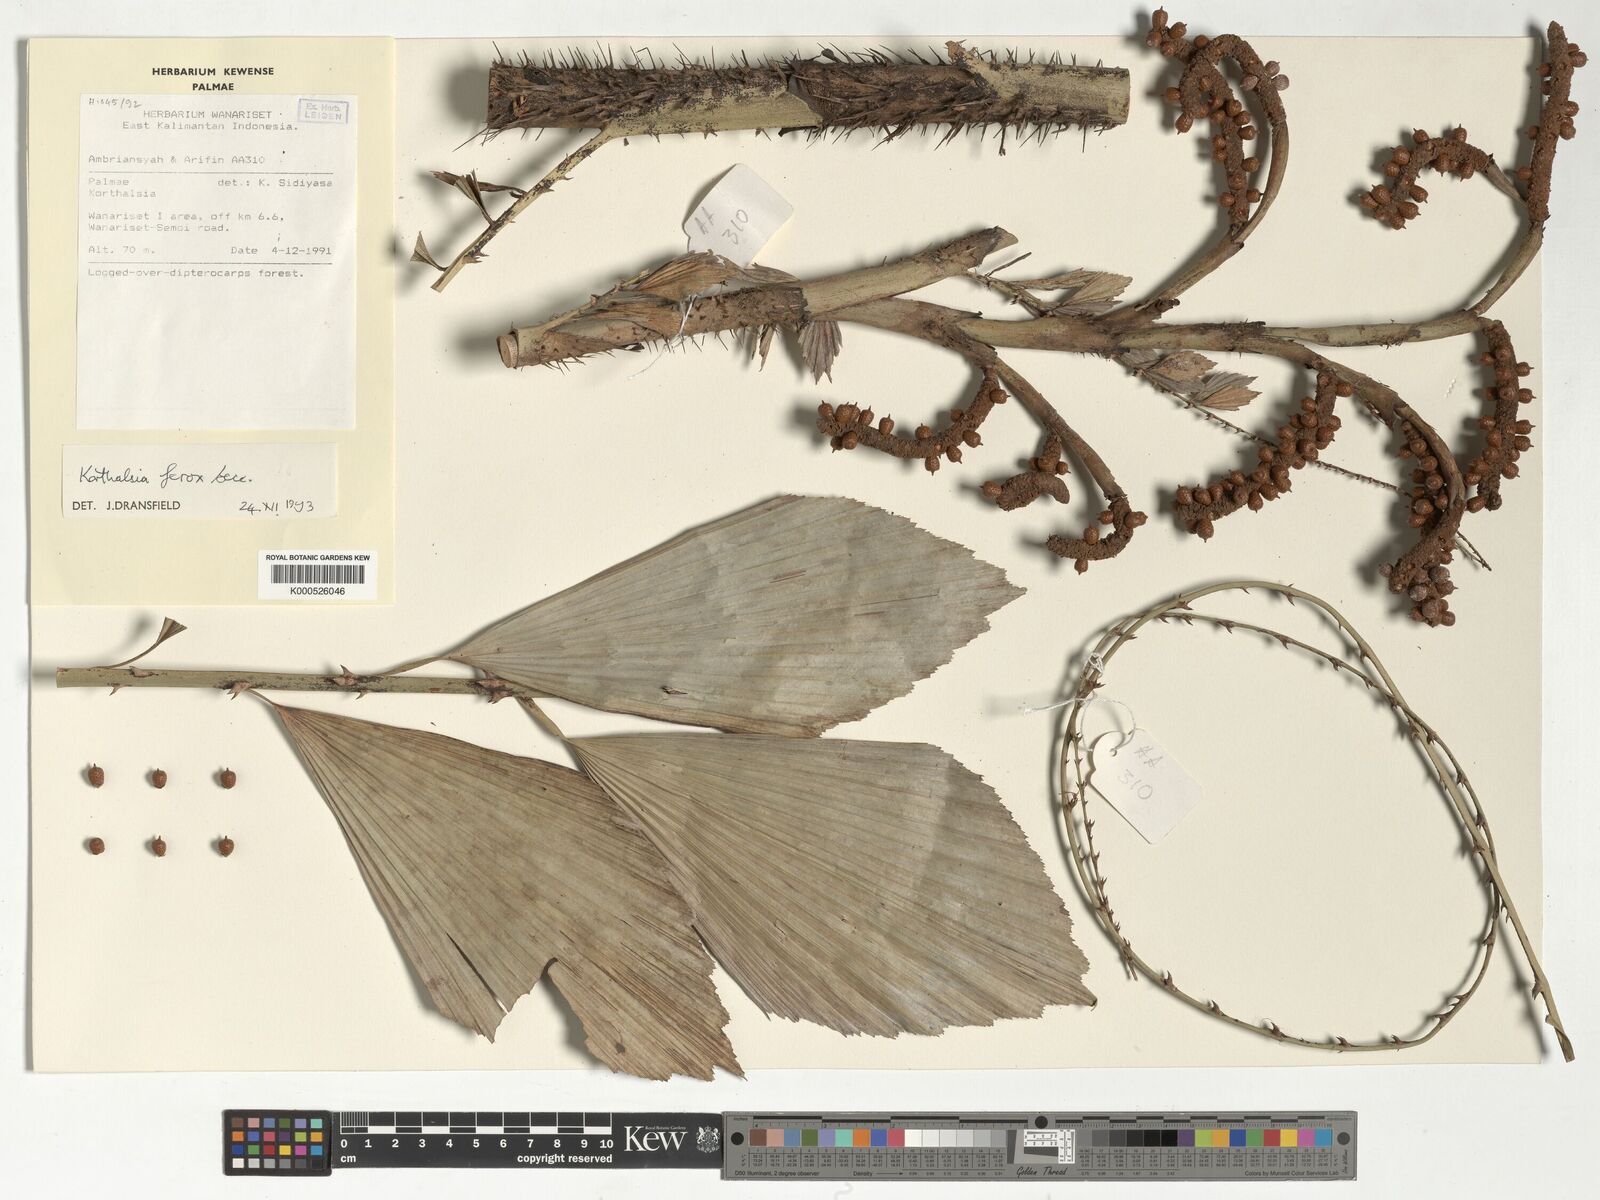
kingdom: Plantae
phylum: Tracheophyta
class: Liliopsida
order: Arecales
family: Arecaceae
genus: Korthalsia
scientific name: Korthalsia ferox
